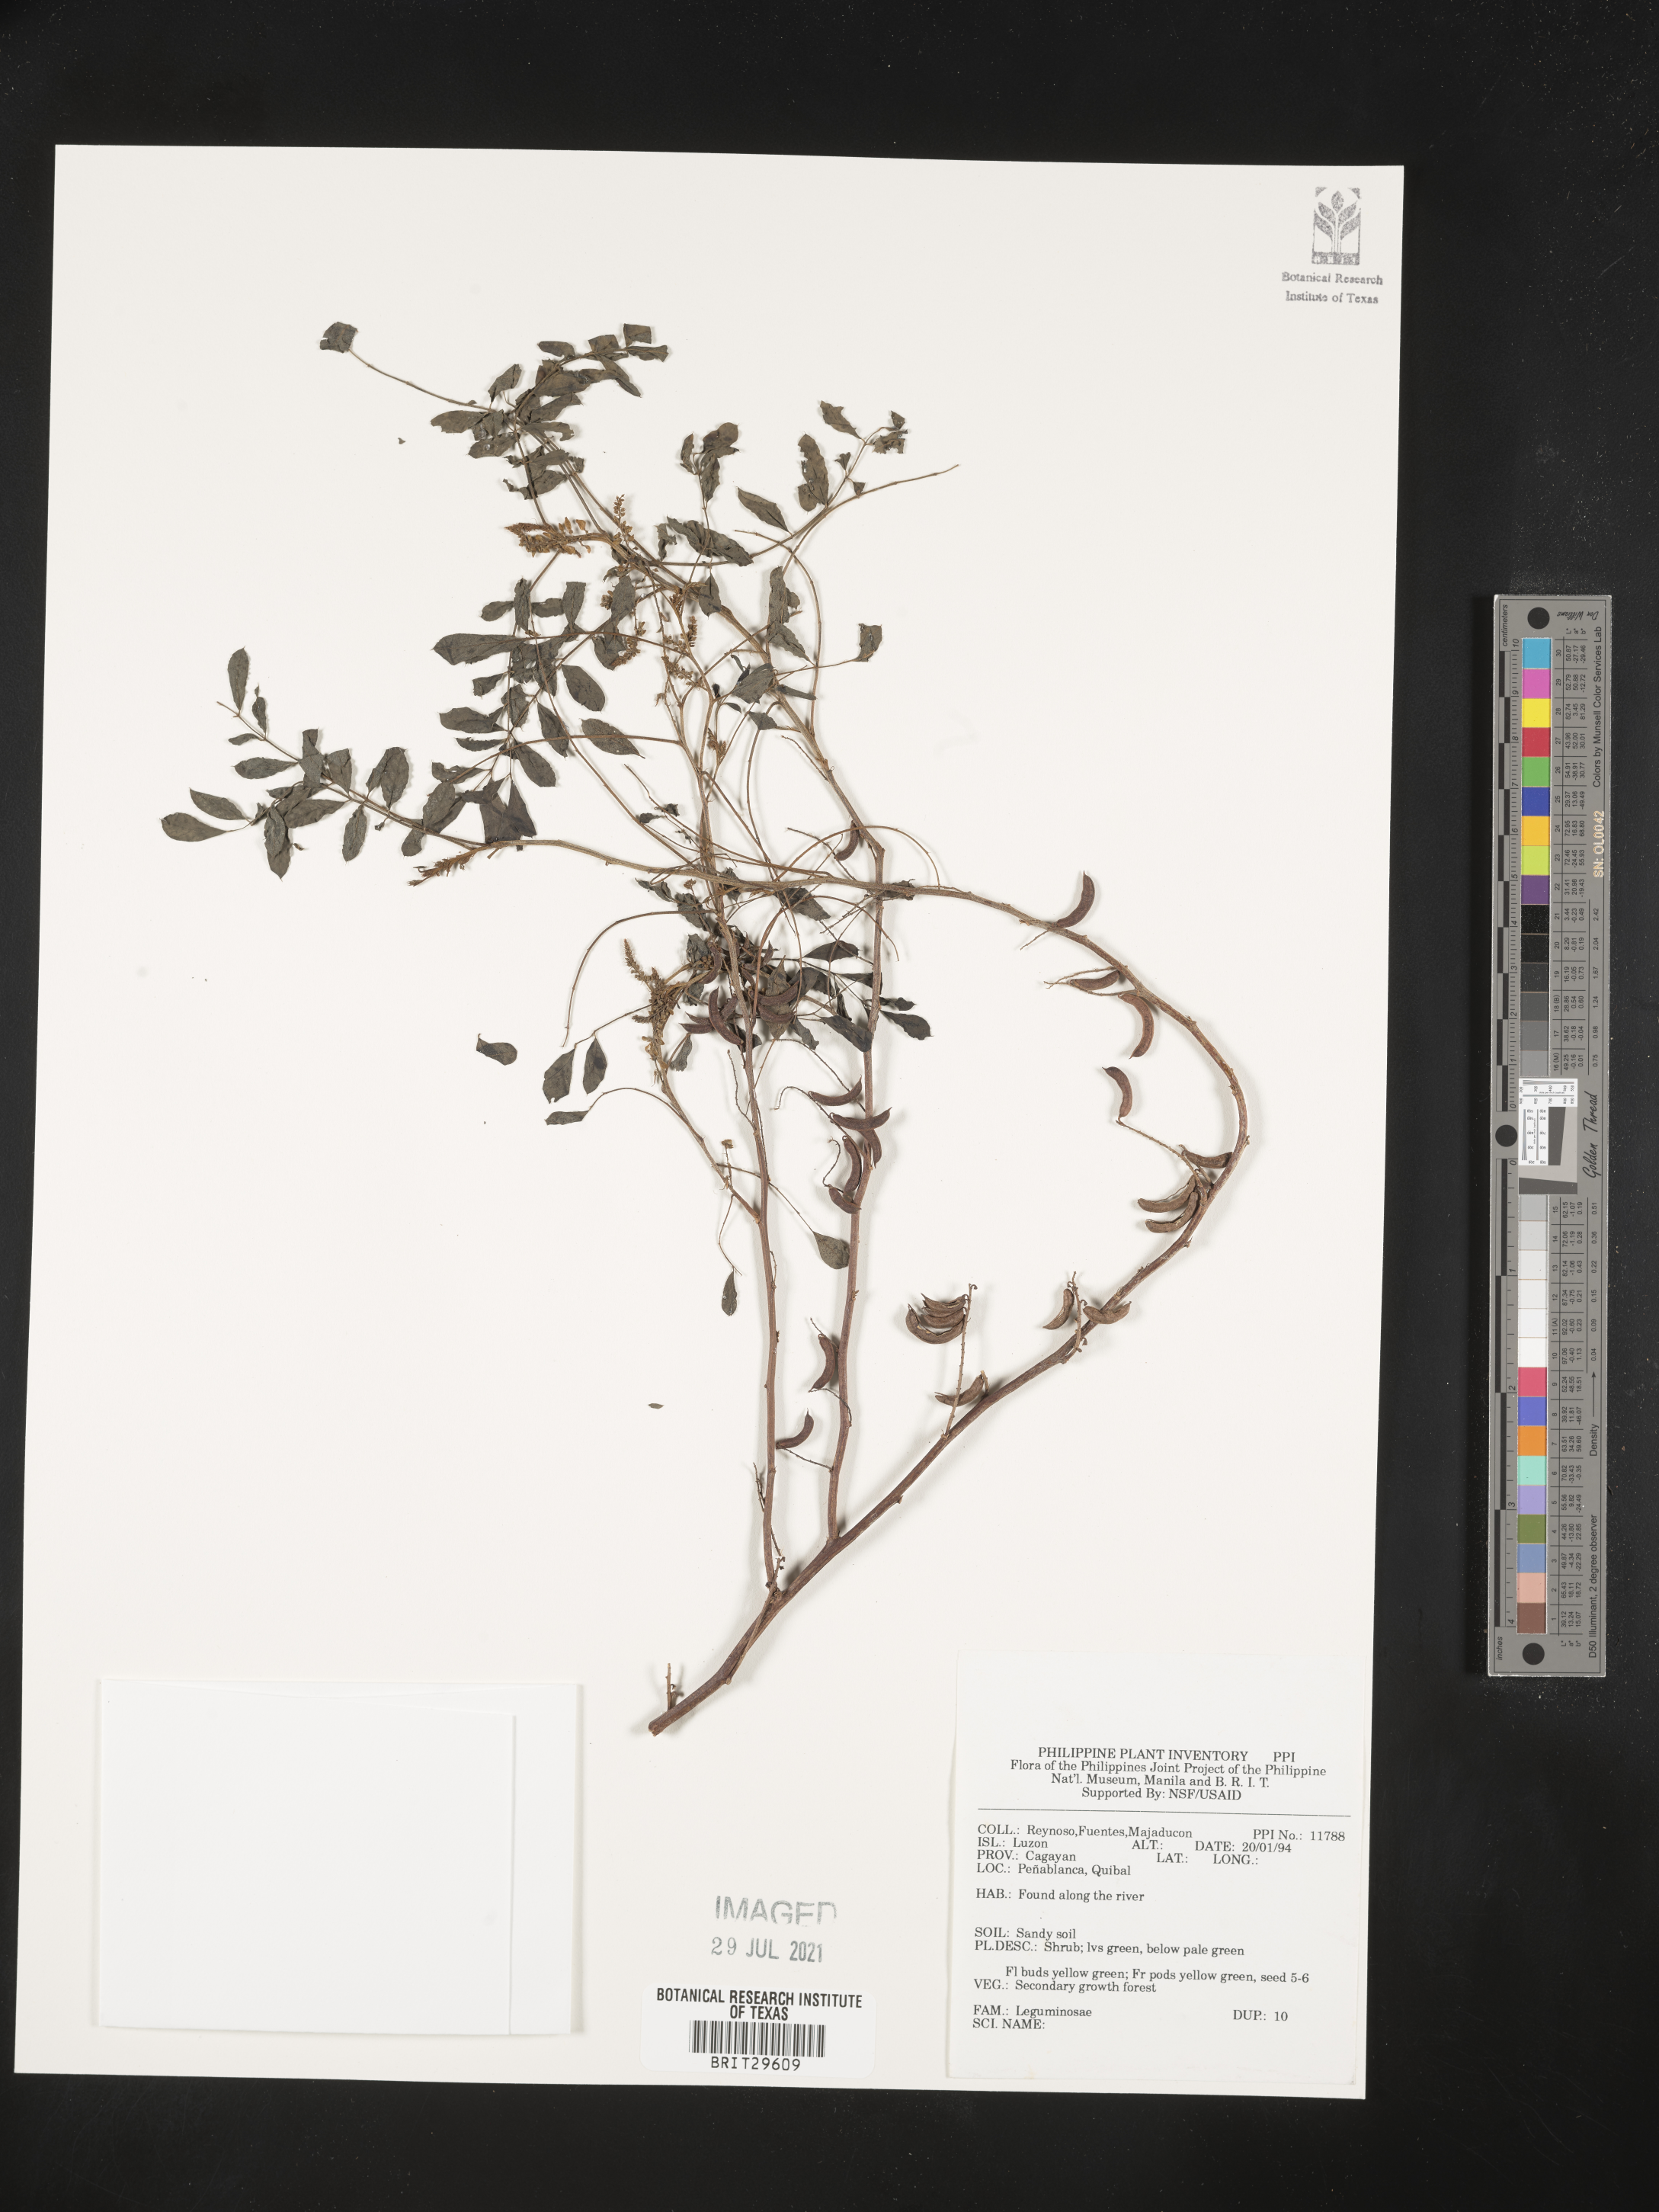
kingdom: Plantae
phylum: Tracheophyta
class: Magnoliopsida
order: Fabales
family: Fabaceae
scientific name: Fabaceae
